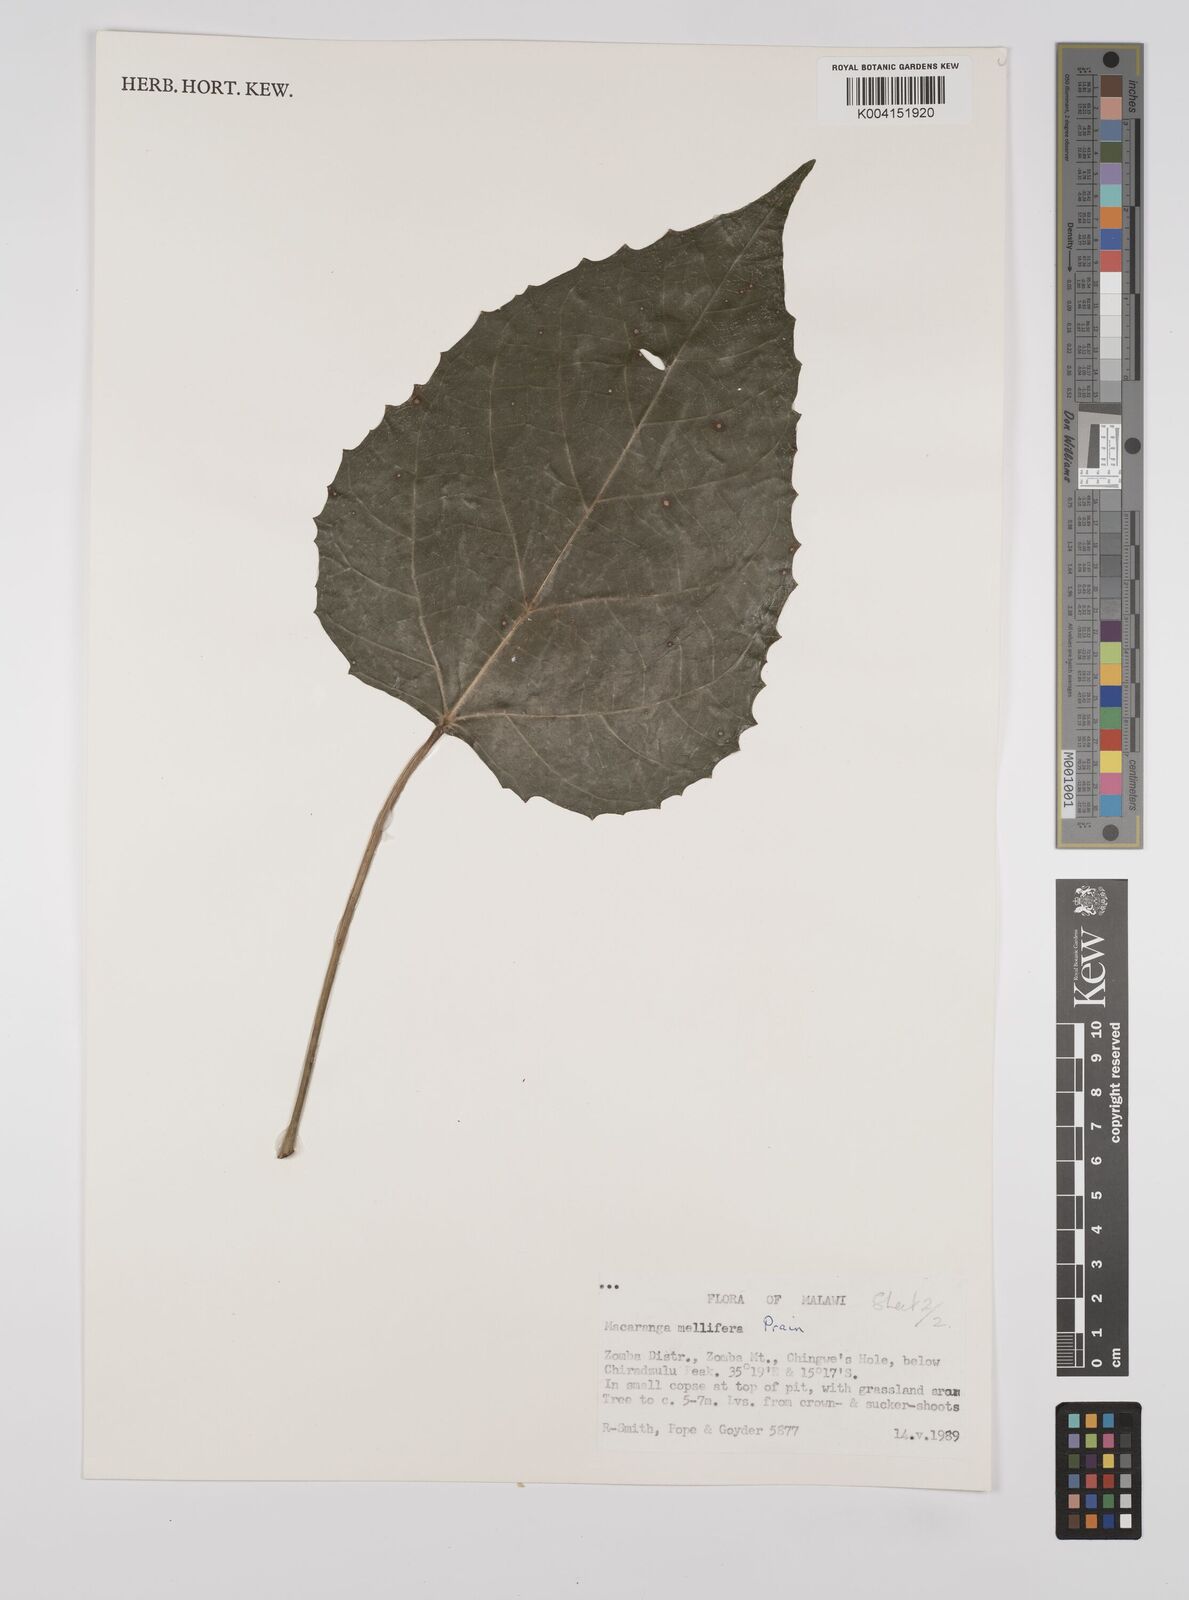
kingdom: Plantae
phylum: Tracheophyta
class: Magnoliopsida
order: Malpighiales
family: Euphorbiaceae
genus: Macaranga
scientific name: Macaranga mellifera
